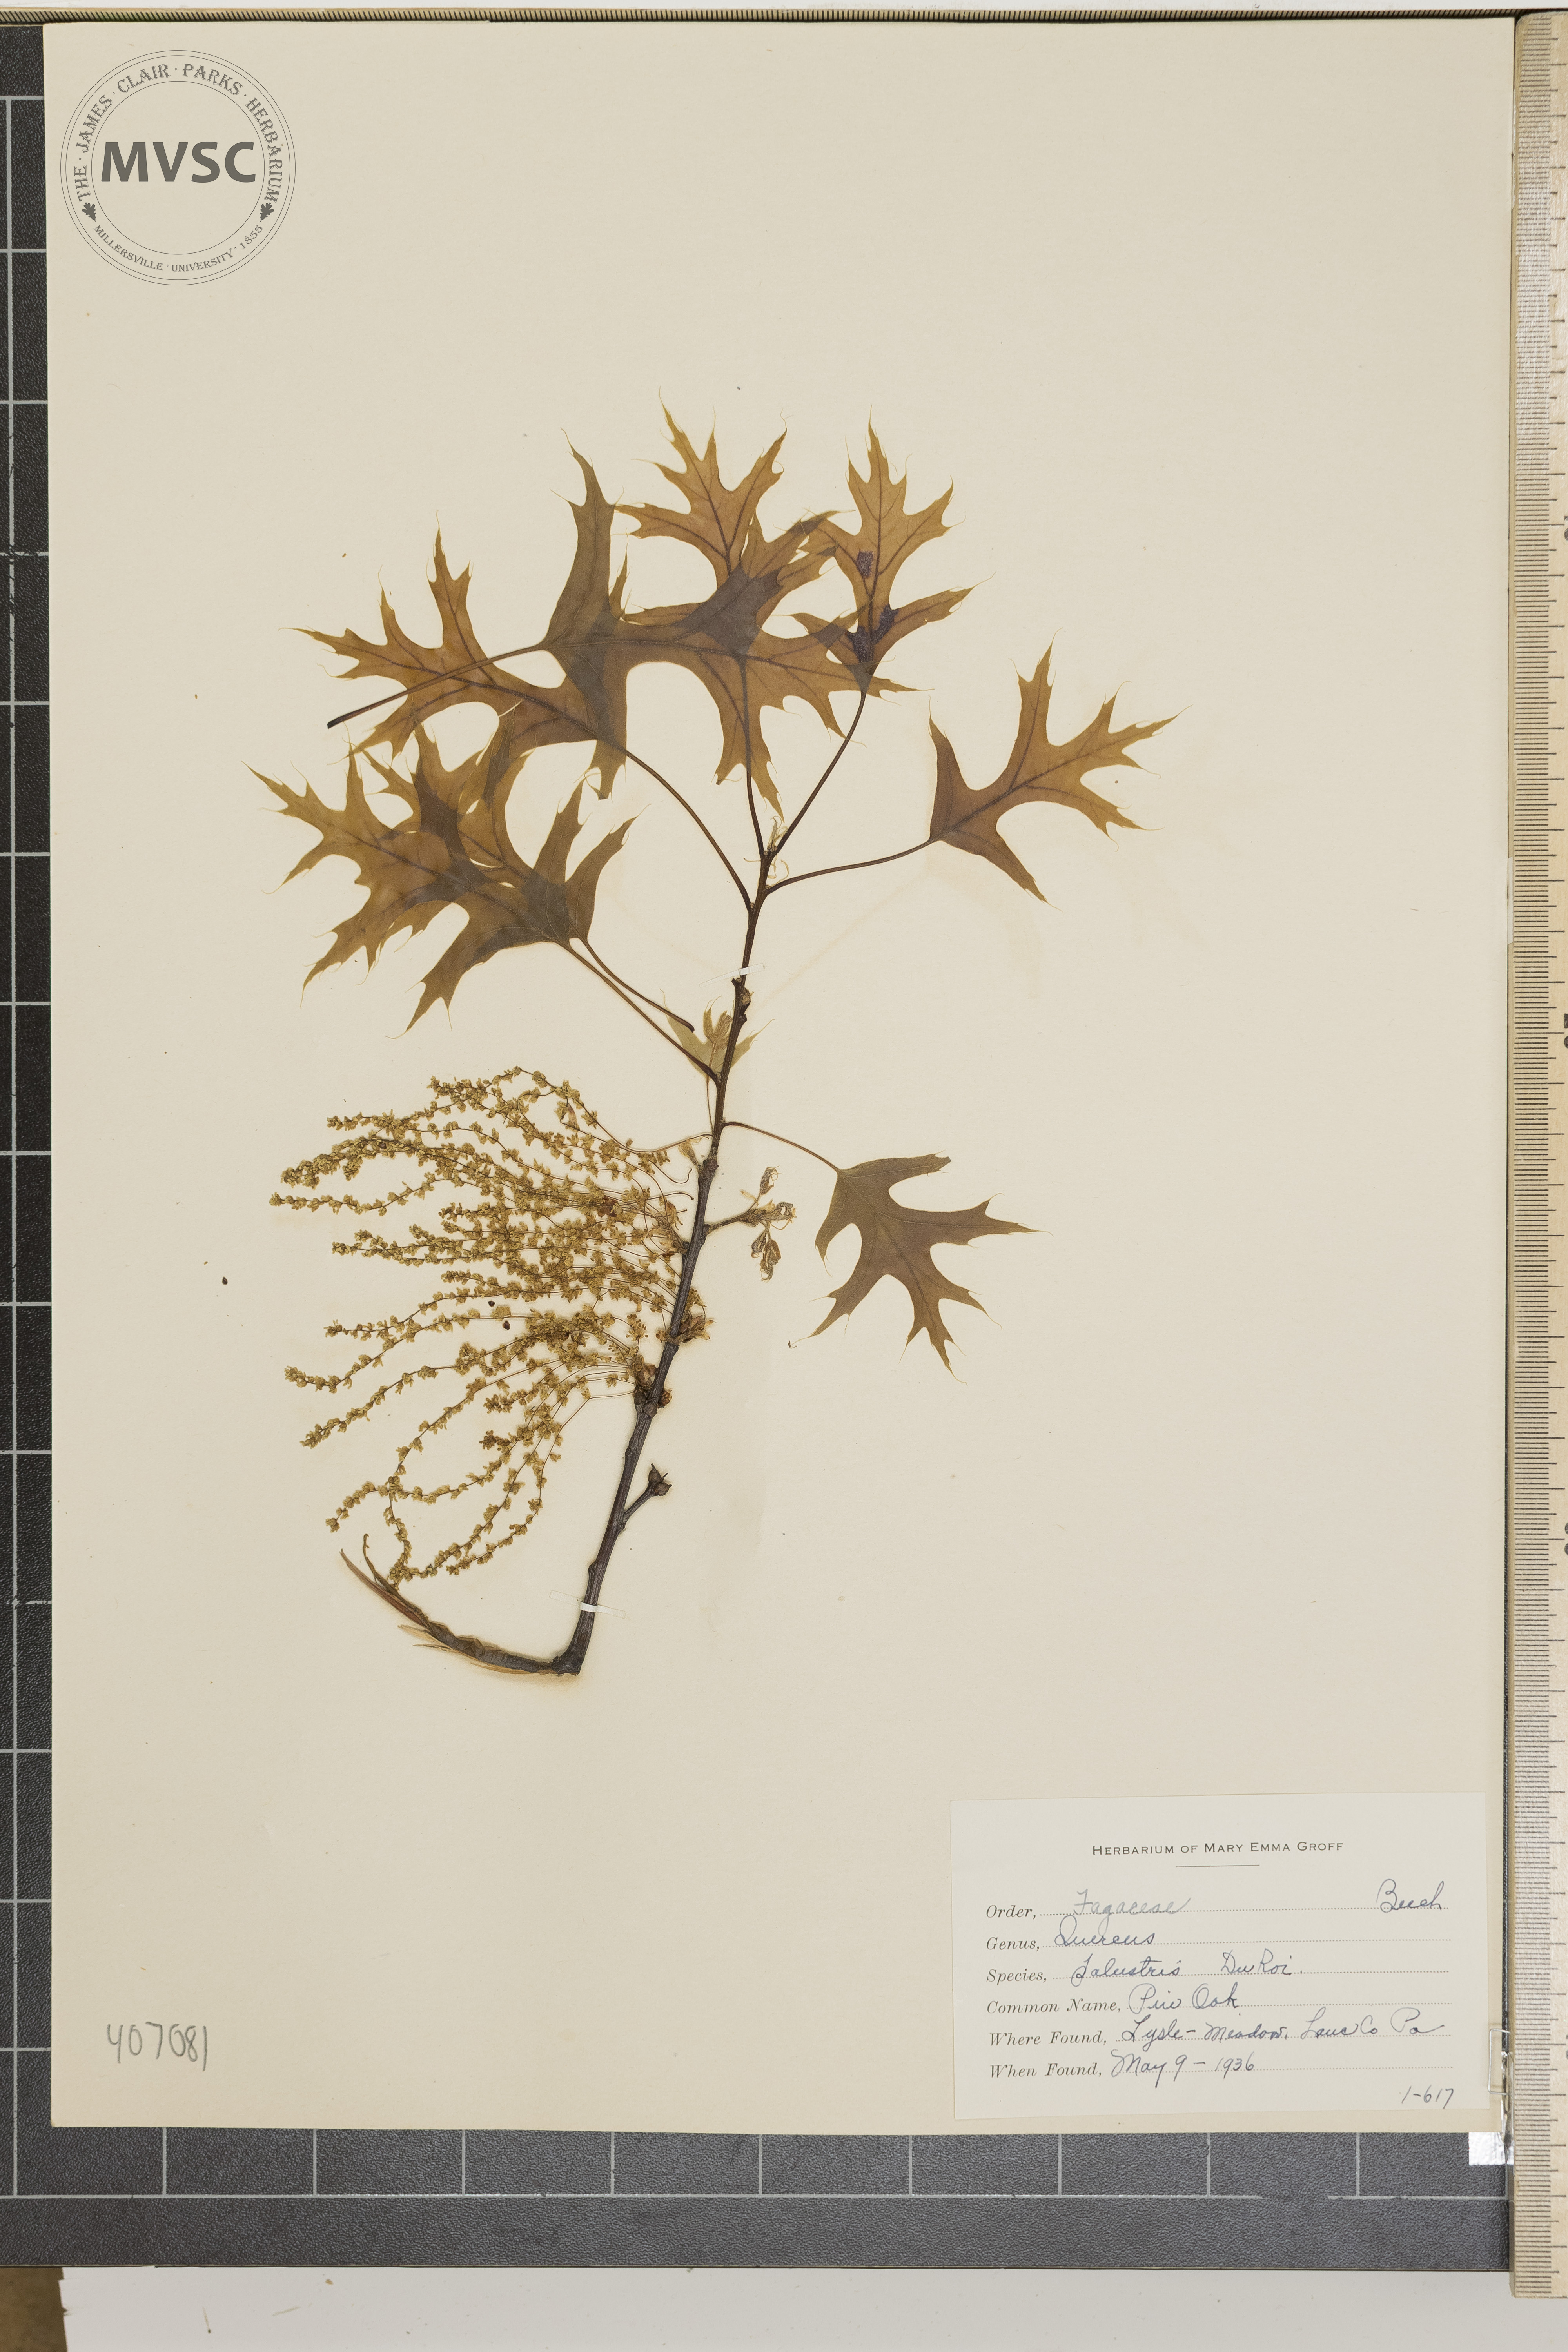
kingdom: Plantae
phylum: Tracheophyta
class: Magnoliopsida
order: Fagales
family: Fagaceae
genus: Quercus
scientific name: Quercus palustris
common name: Pin Oak
